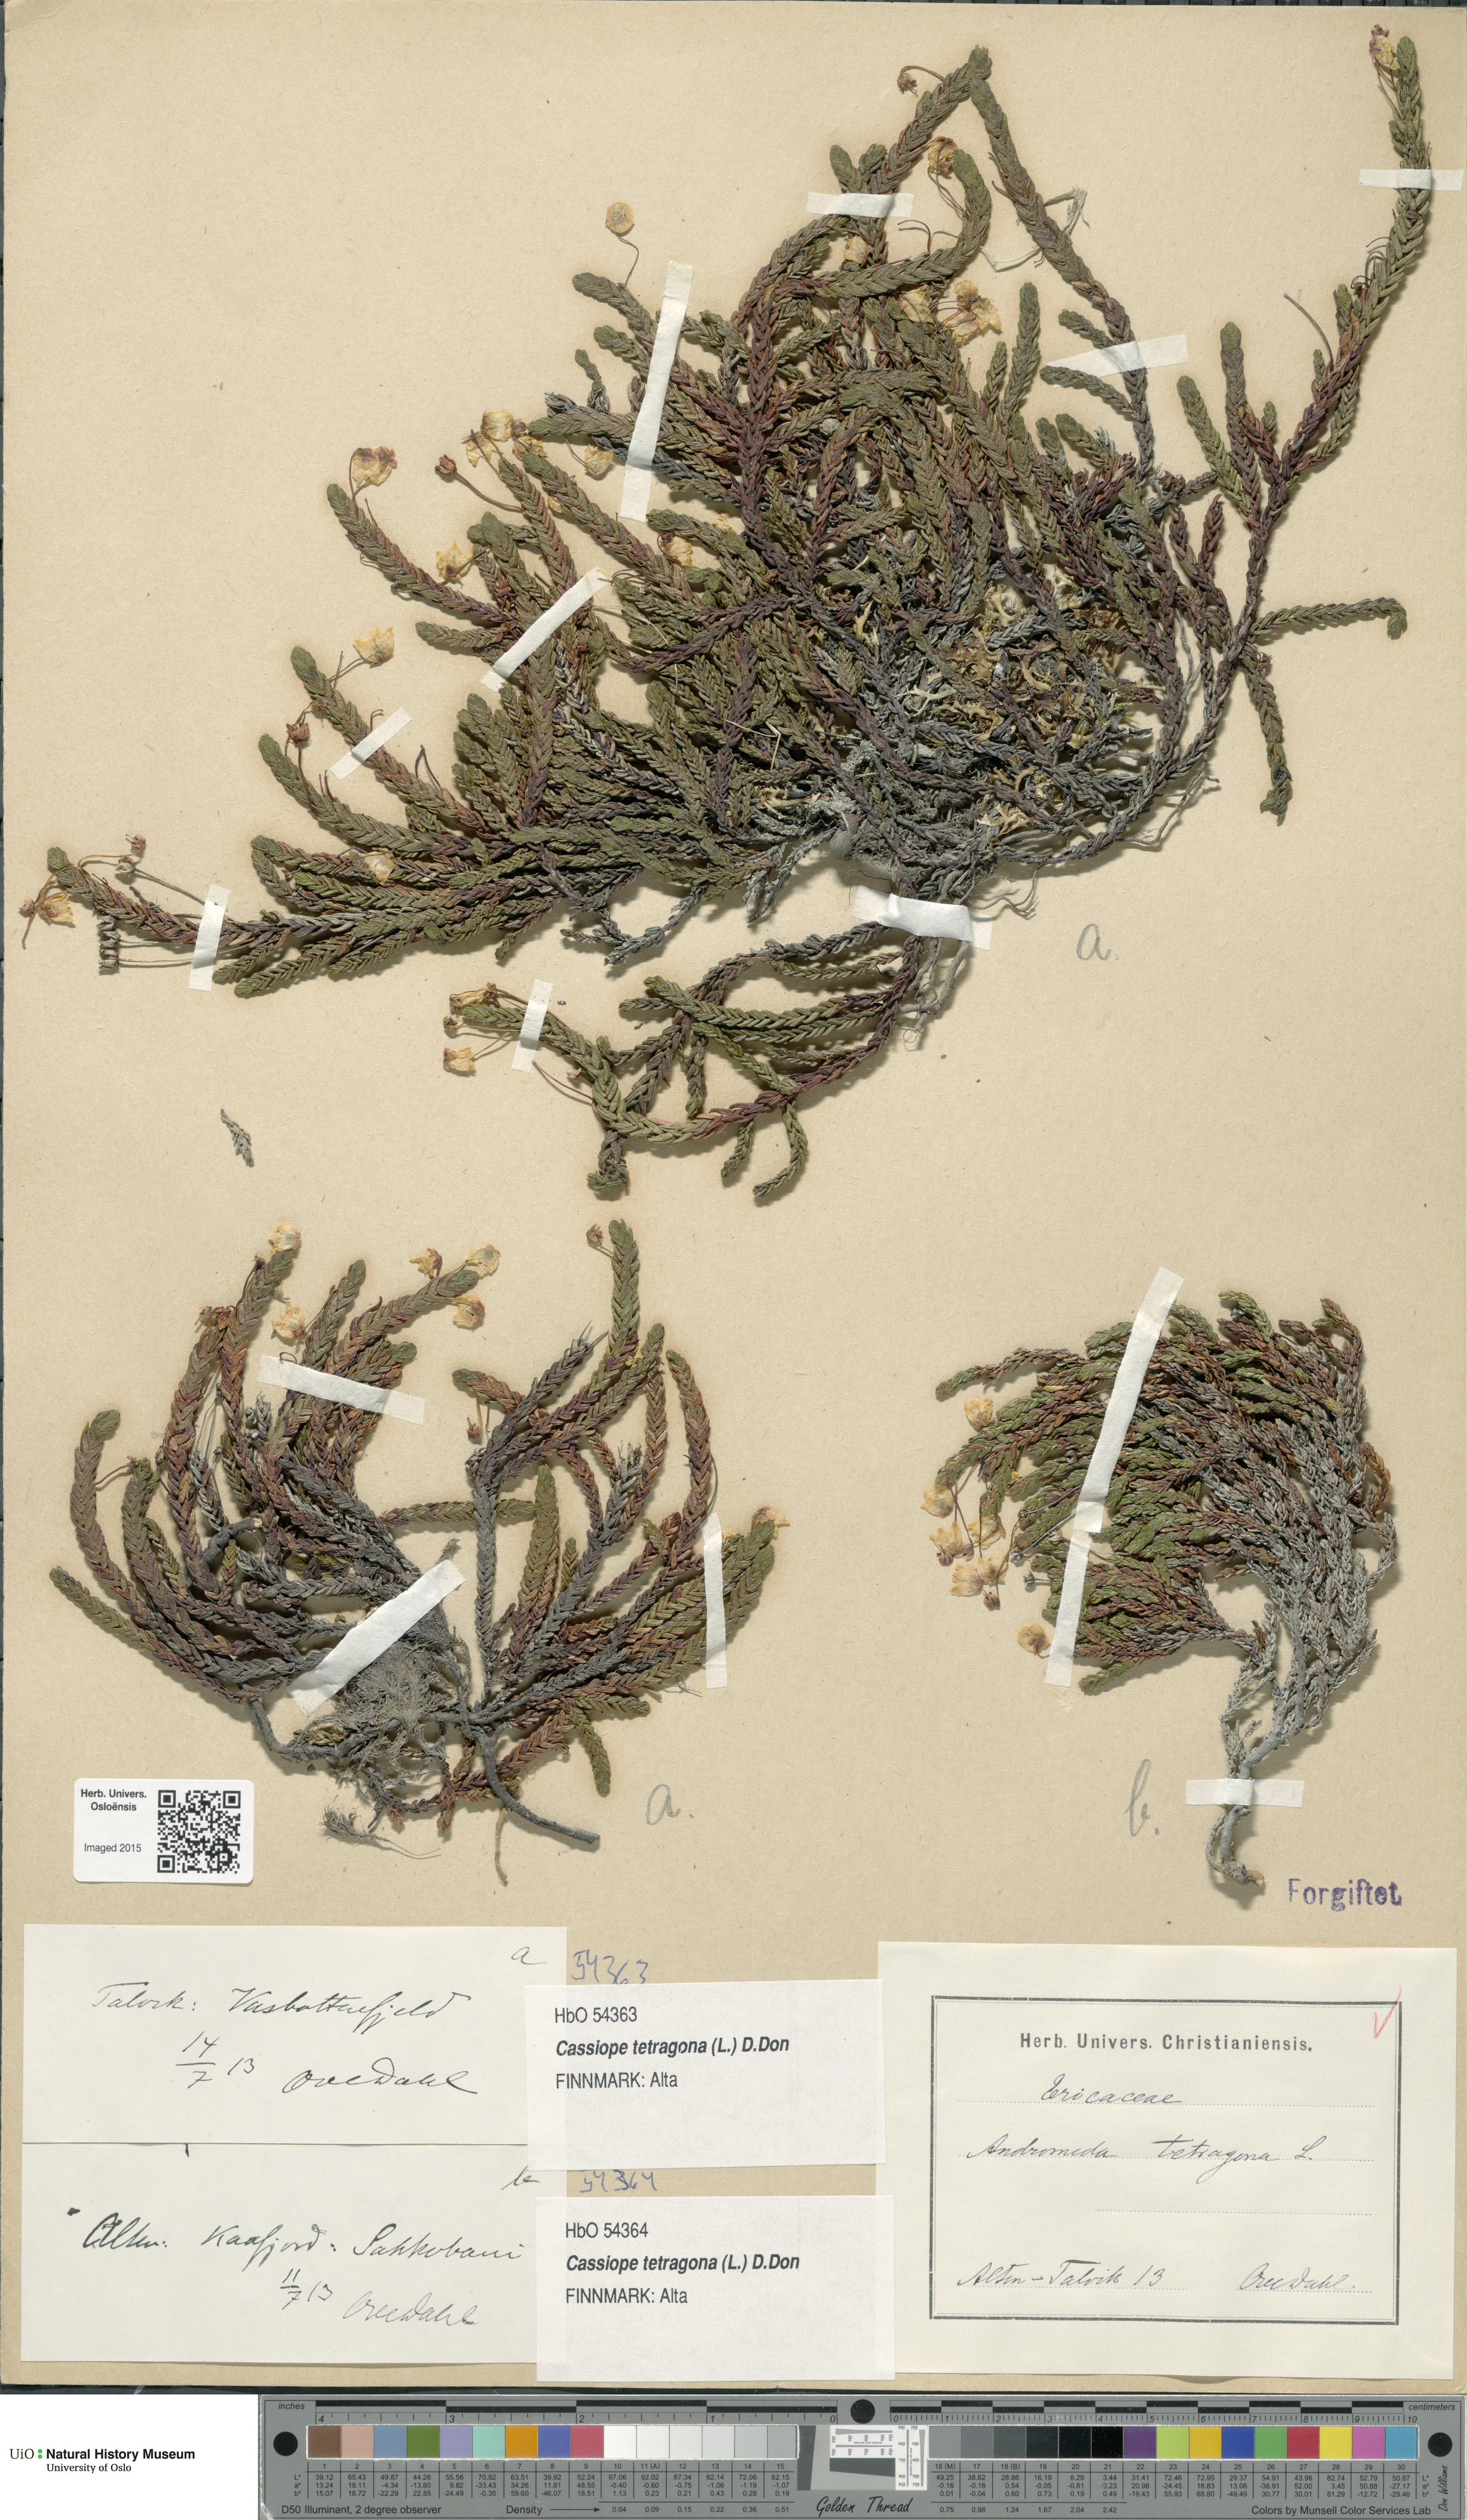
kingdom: Plantae
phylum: Tracheophyta
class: Magnoliopsida
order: Ericales
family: Ericaceae
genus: Cassiope
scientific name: Cassiope tetragona
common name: Arctic bell heather
